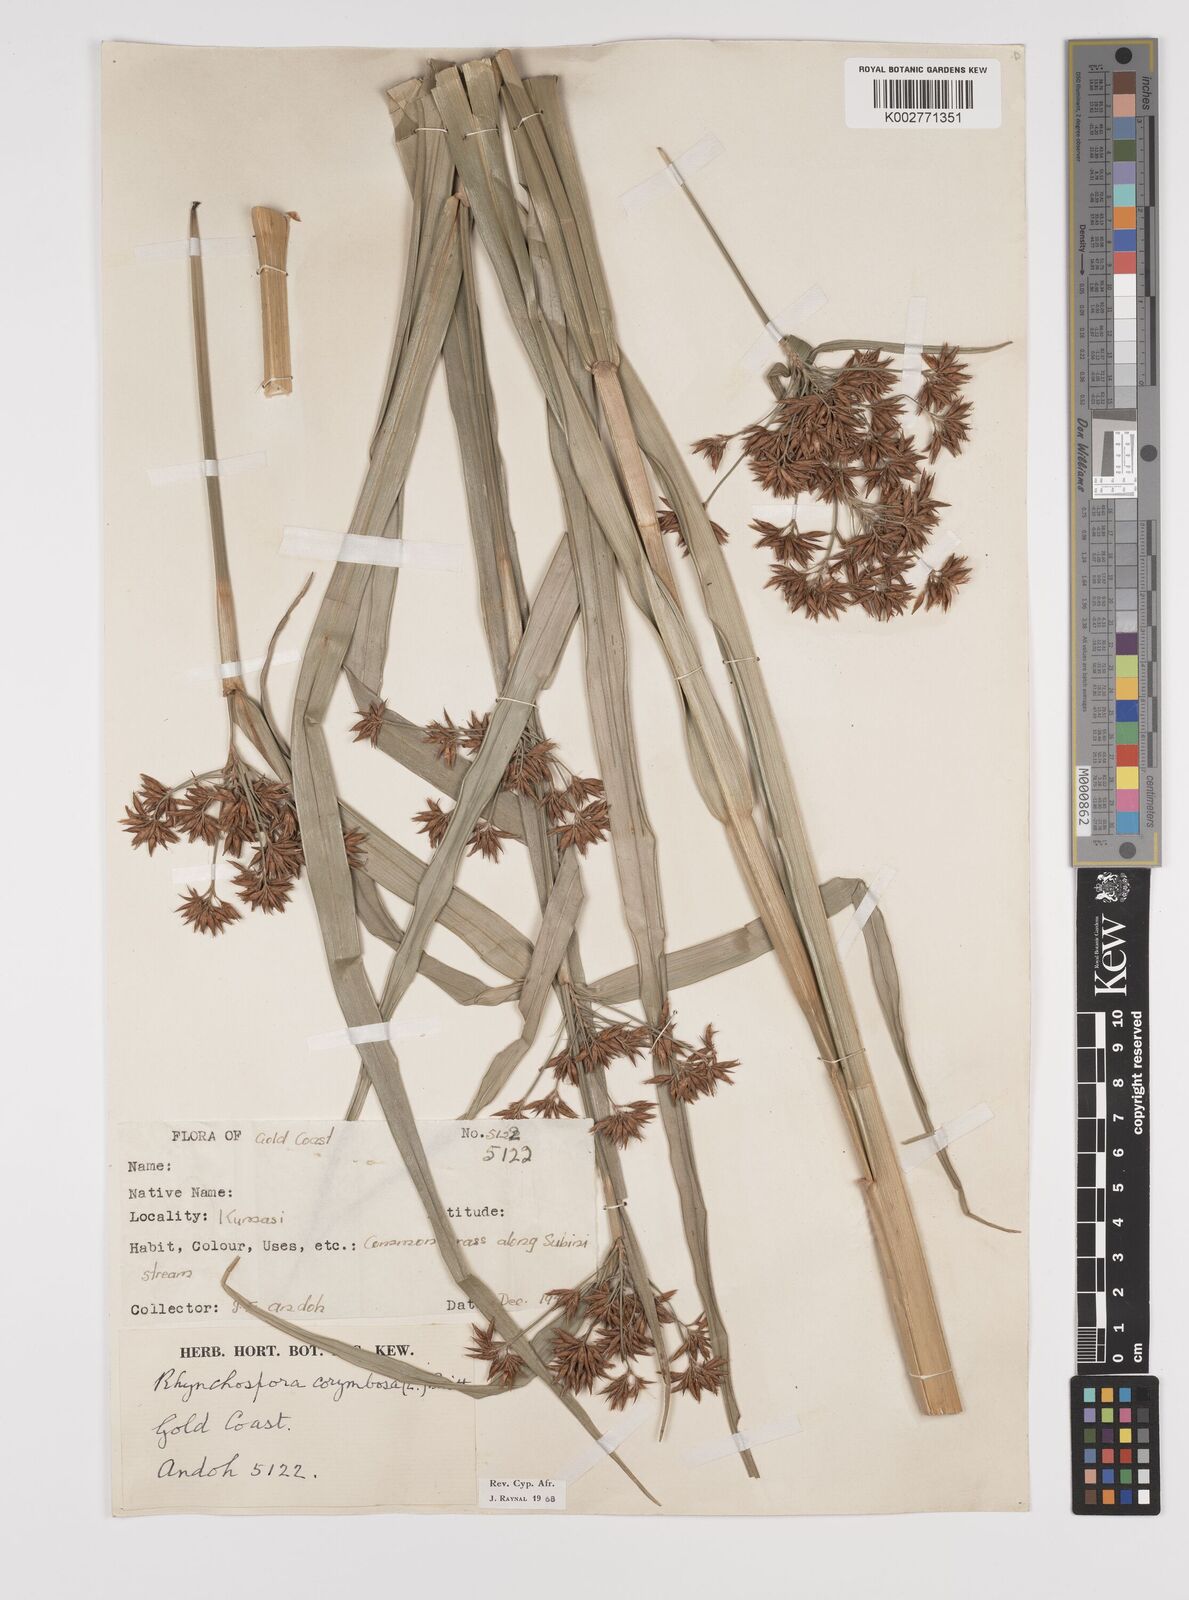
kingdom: Plantae
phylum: Tracheophyta
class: Liliopsida
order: Poales
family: Cyperaceae
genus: Rhynchospora
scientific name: Rhynchospora corymbosa
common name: Golden beak sedge
